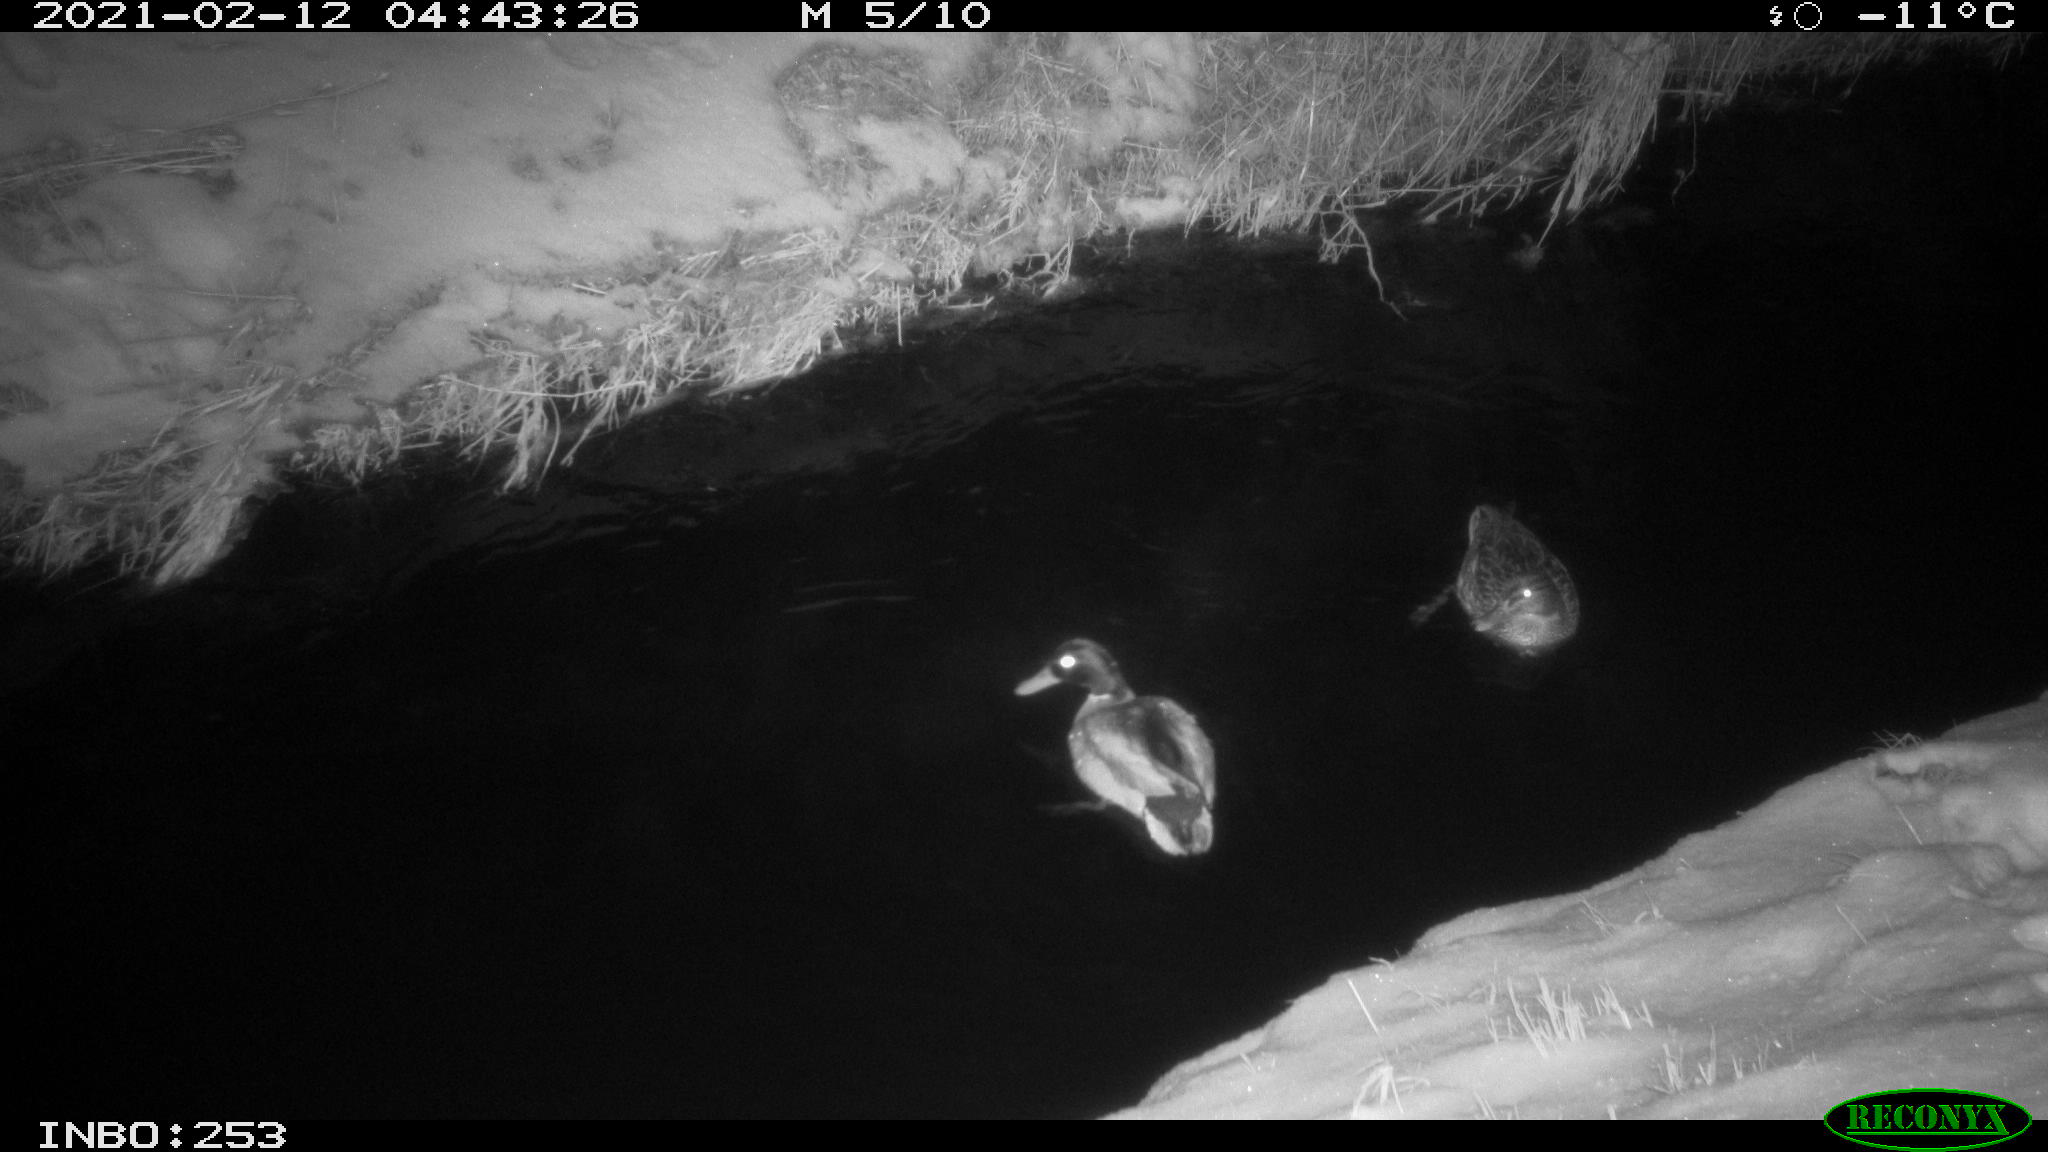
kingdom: Animalia
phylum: Chordata
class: Aves
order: Anseriformes
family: Anatidae
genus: Anas
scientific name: Anas platyrhynchos
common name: Mallard
